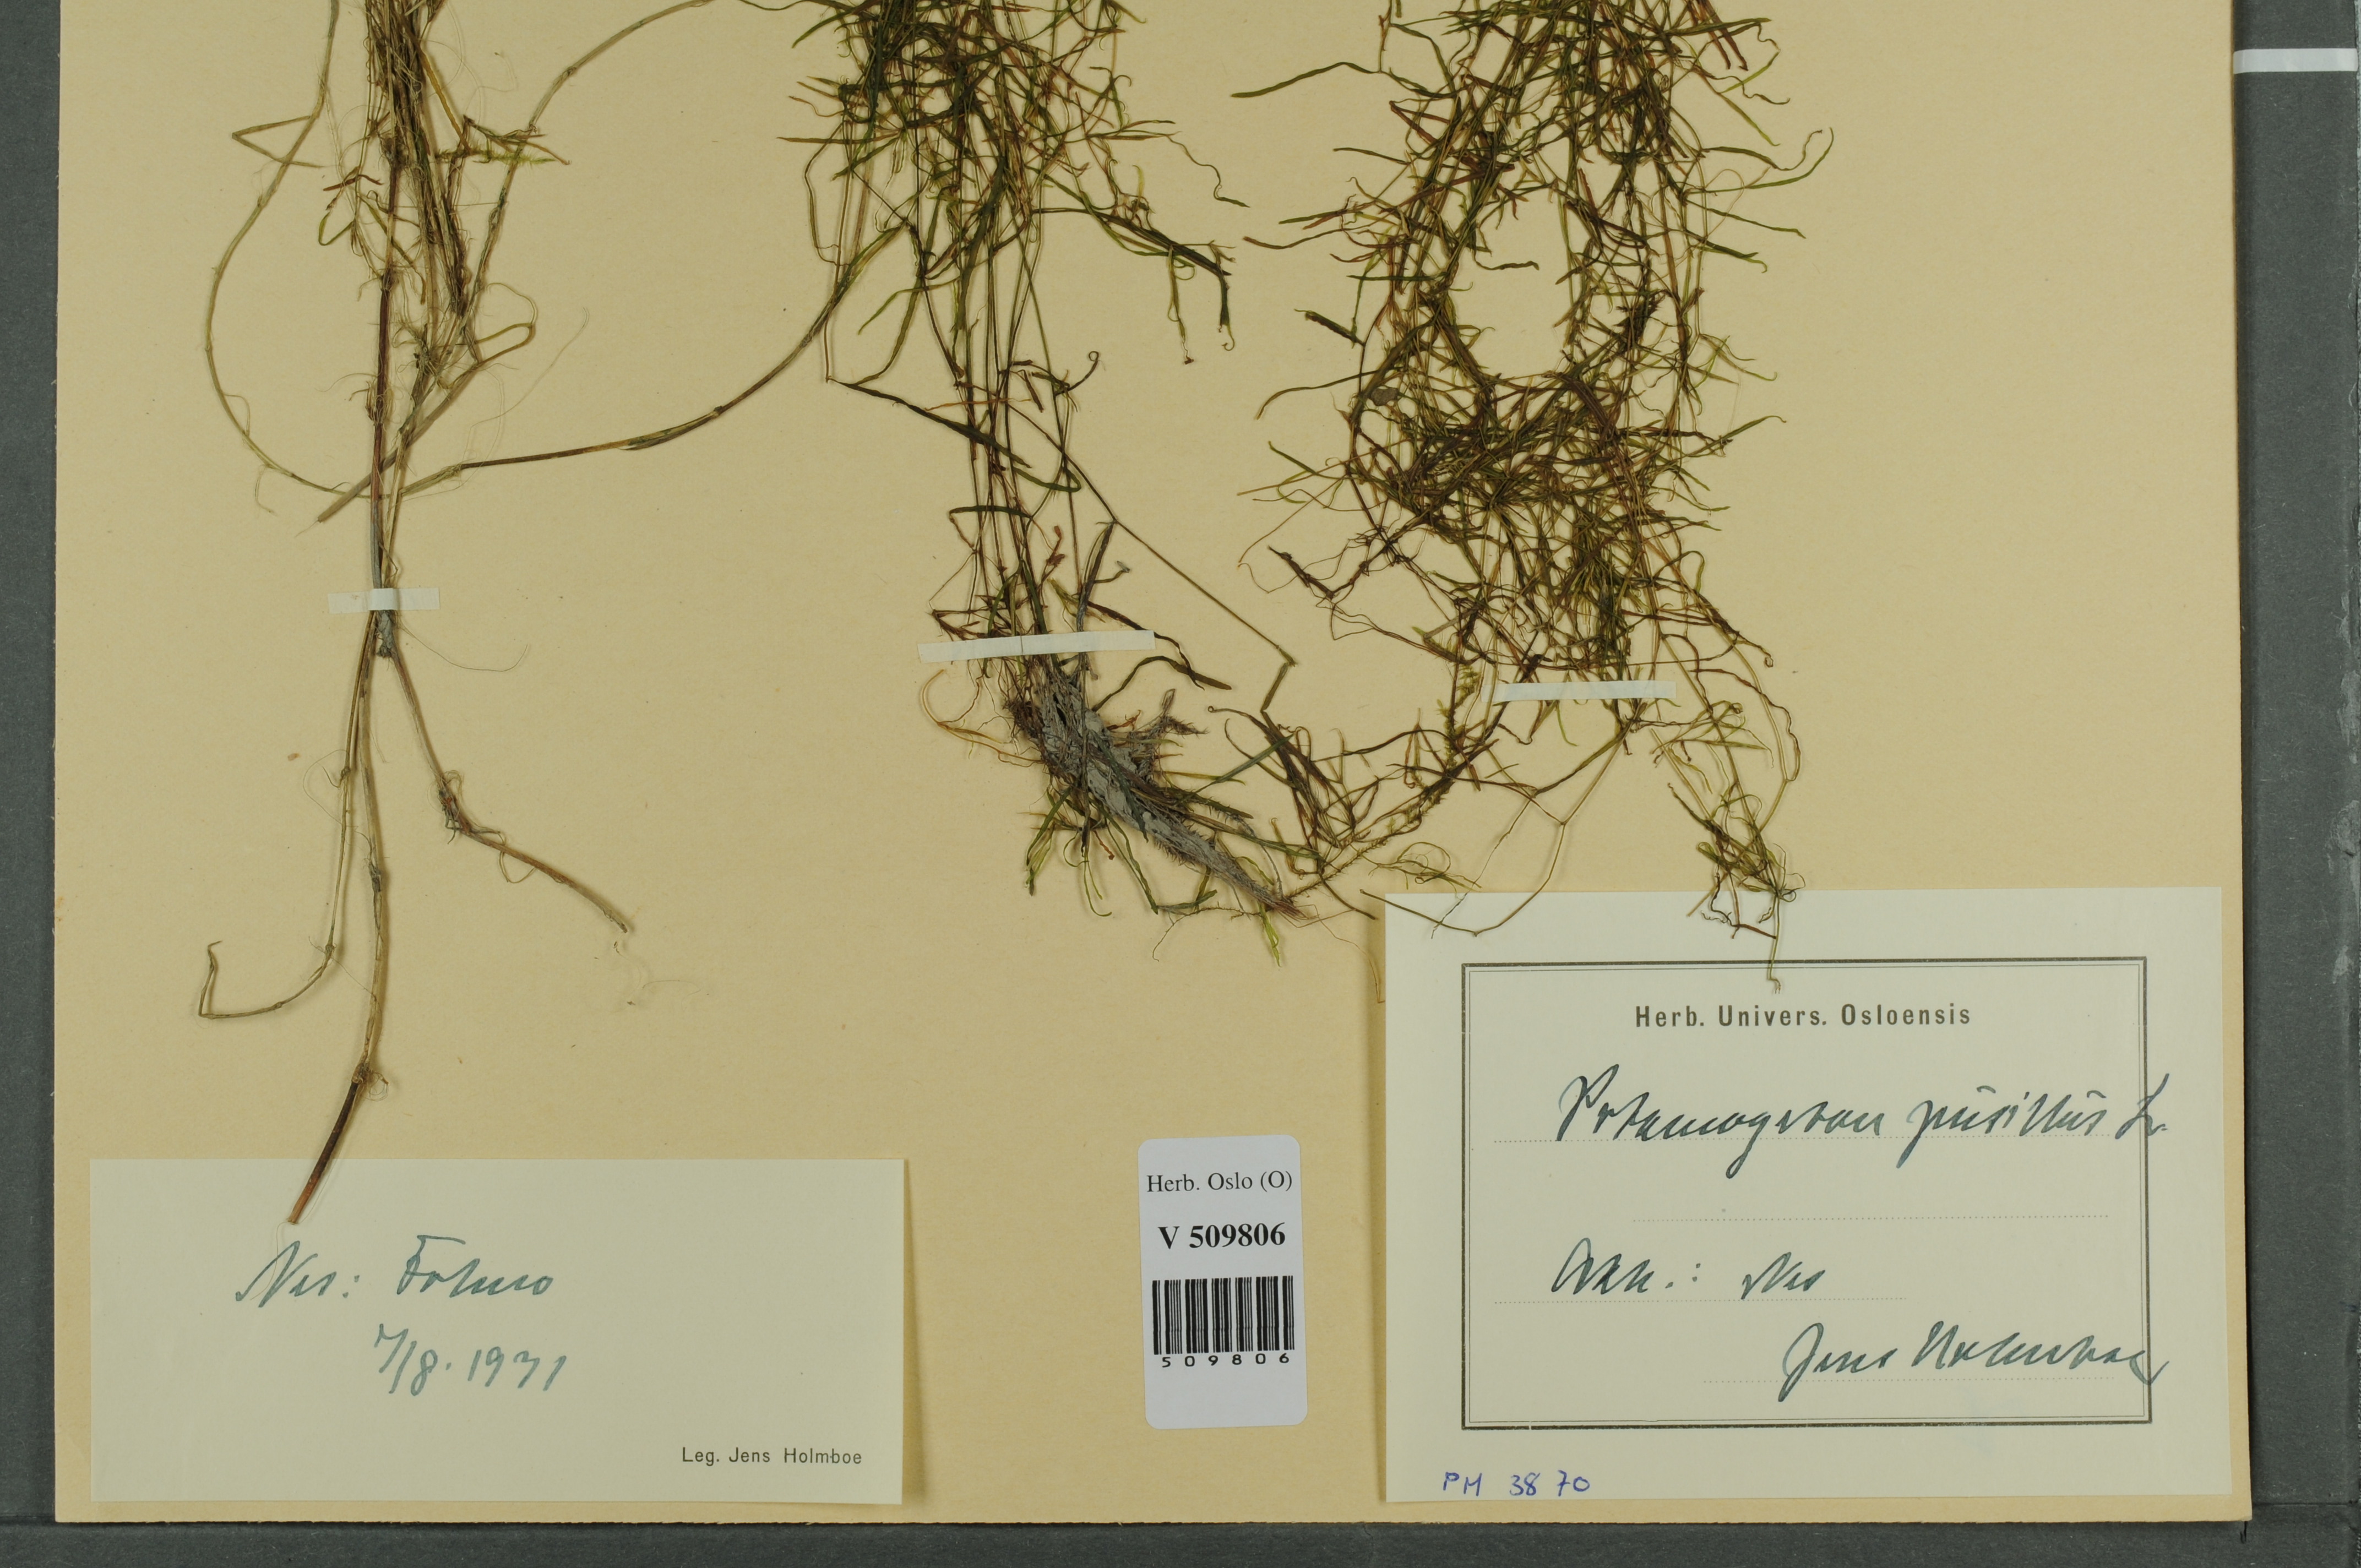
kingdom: Plantae
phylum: Tracheophyta
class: Liliopsida
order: Alismatales
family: Potamogetonaceae
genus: Potamogeton
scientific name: Potamogeton berchtoldii
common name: Small pondweed
